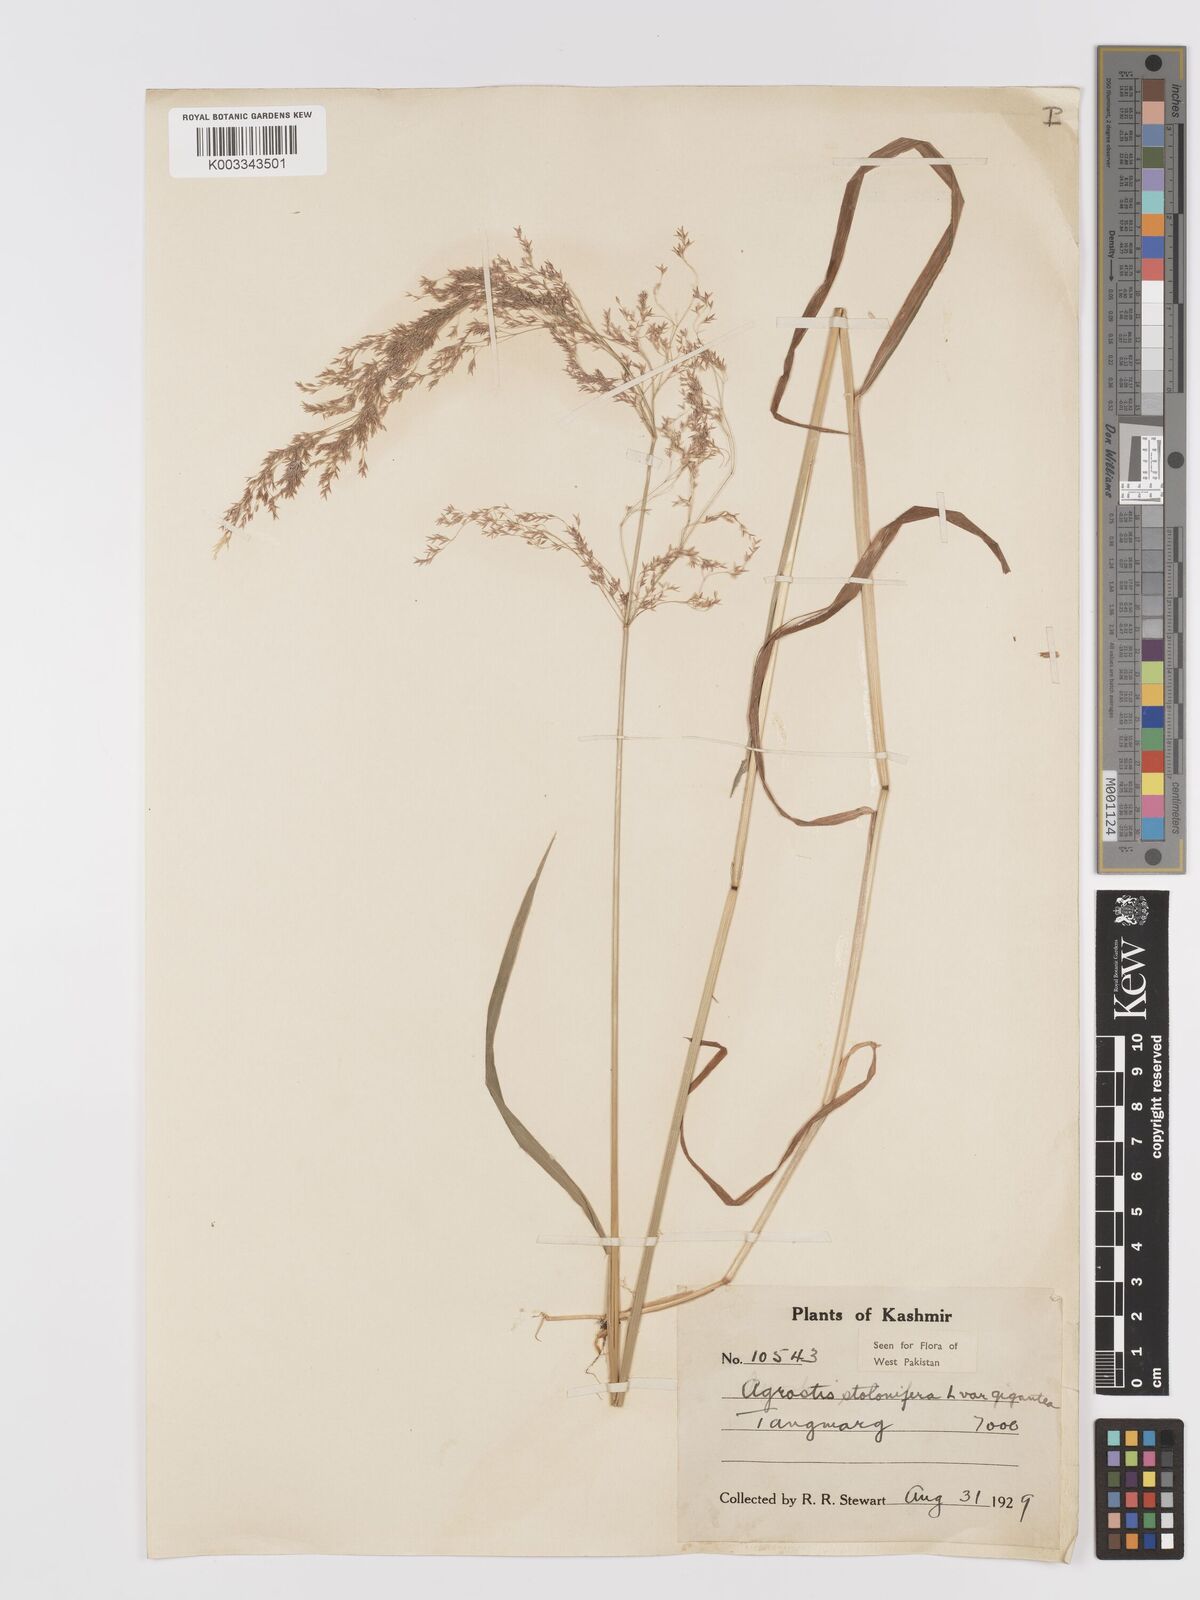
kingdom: Plantae
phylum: Tracheophyta
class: Liliopsida
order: Poales
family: Poaceae
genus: Agrostis
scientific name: Agrostis gigantea
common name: Black bent
